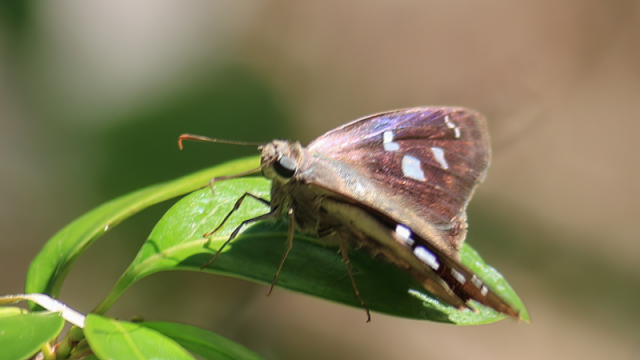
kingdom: Animalia
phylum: Arthropoda
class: Insecta
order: Lepidoptera
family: Hesperiidae
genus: Polygonus
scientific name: Polygonus leo
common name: Hammock Skipper
